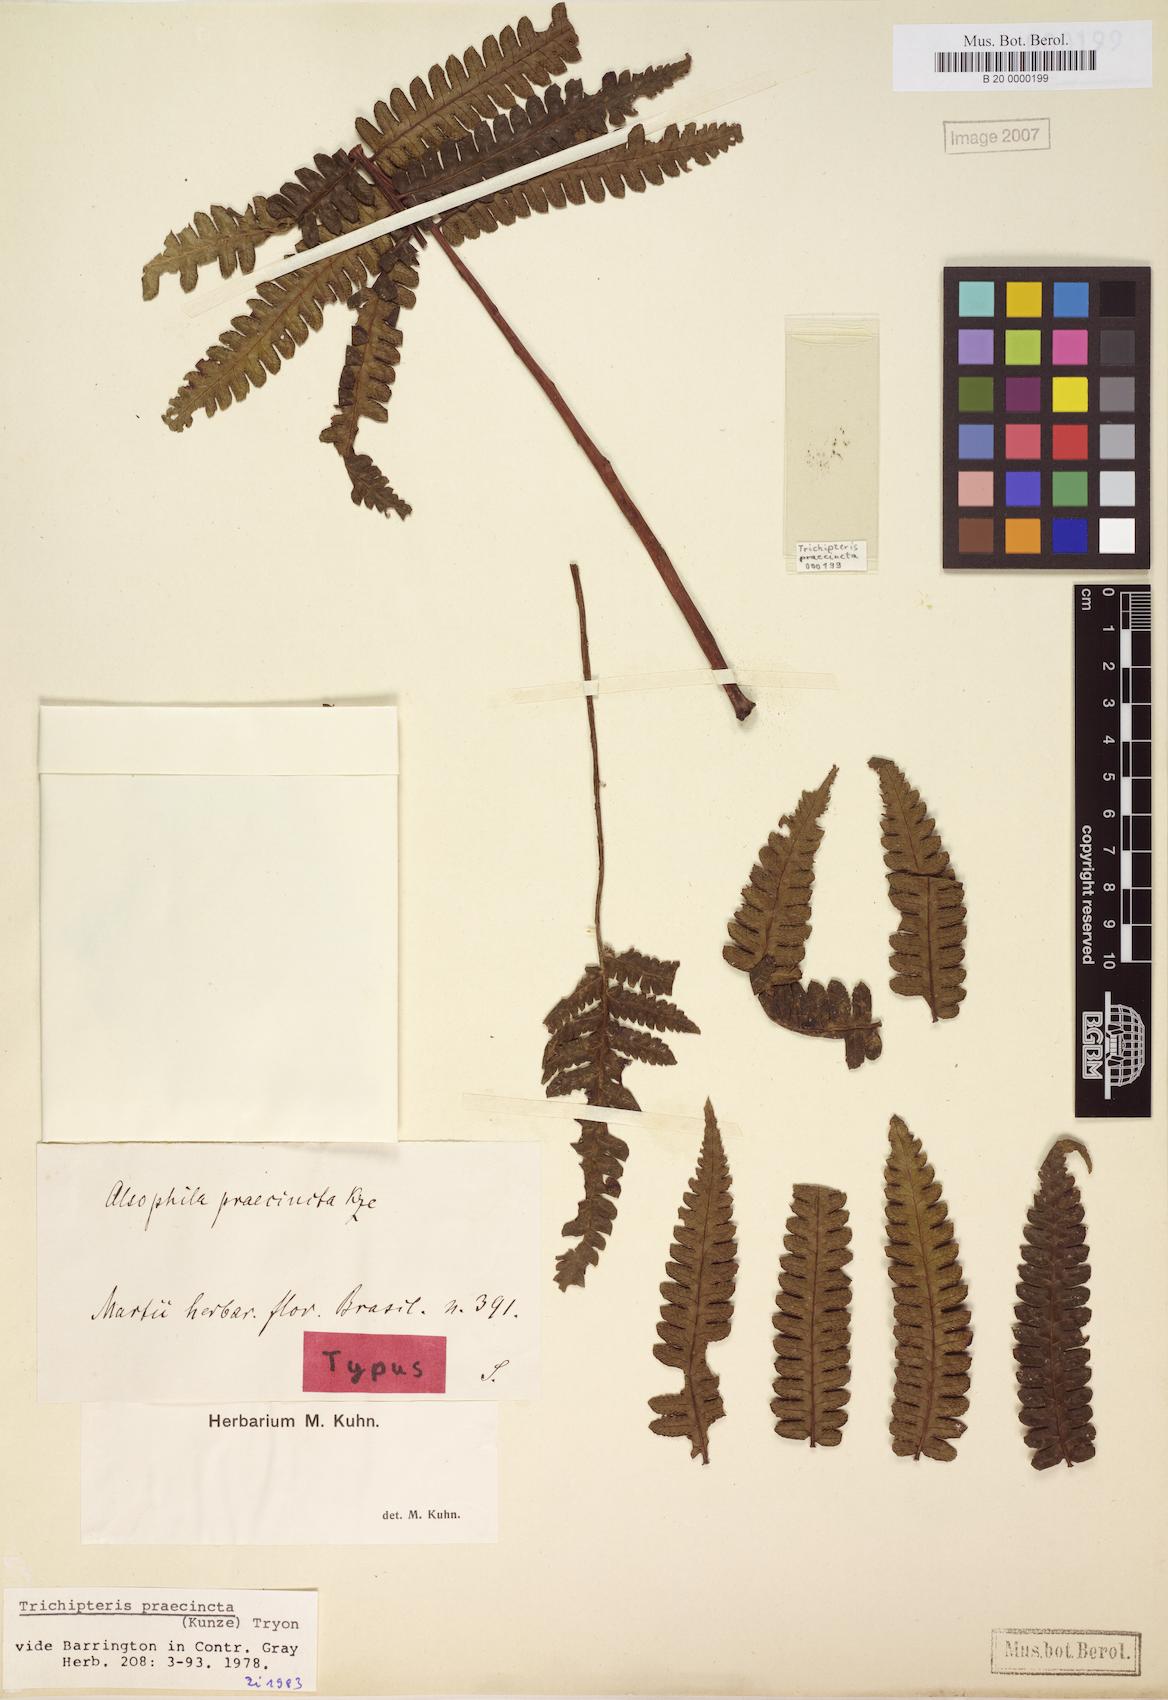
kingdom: Plantae
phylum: Tracheophyta
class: Polypodiopsida
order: Cyatheales
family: Cyatheaceae
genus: Cyathea
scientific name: Cyathea praecincta
